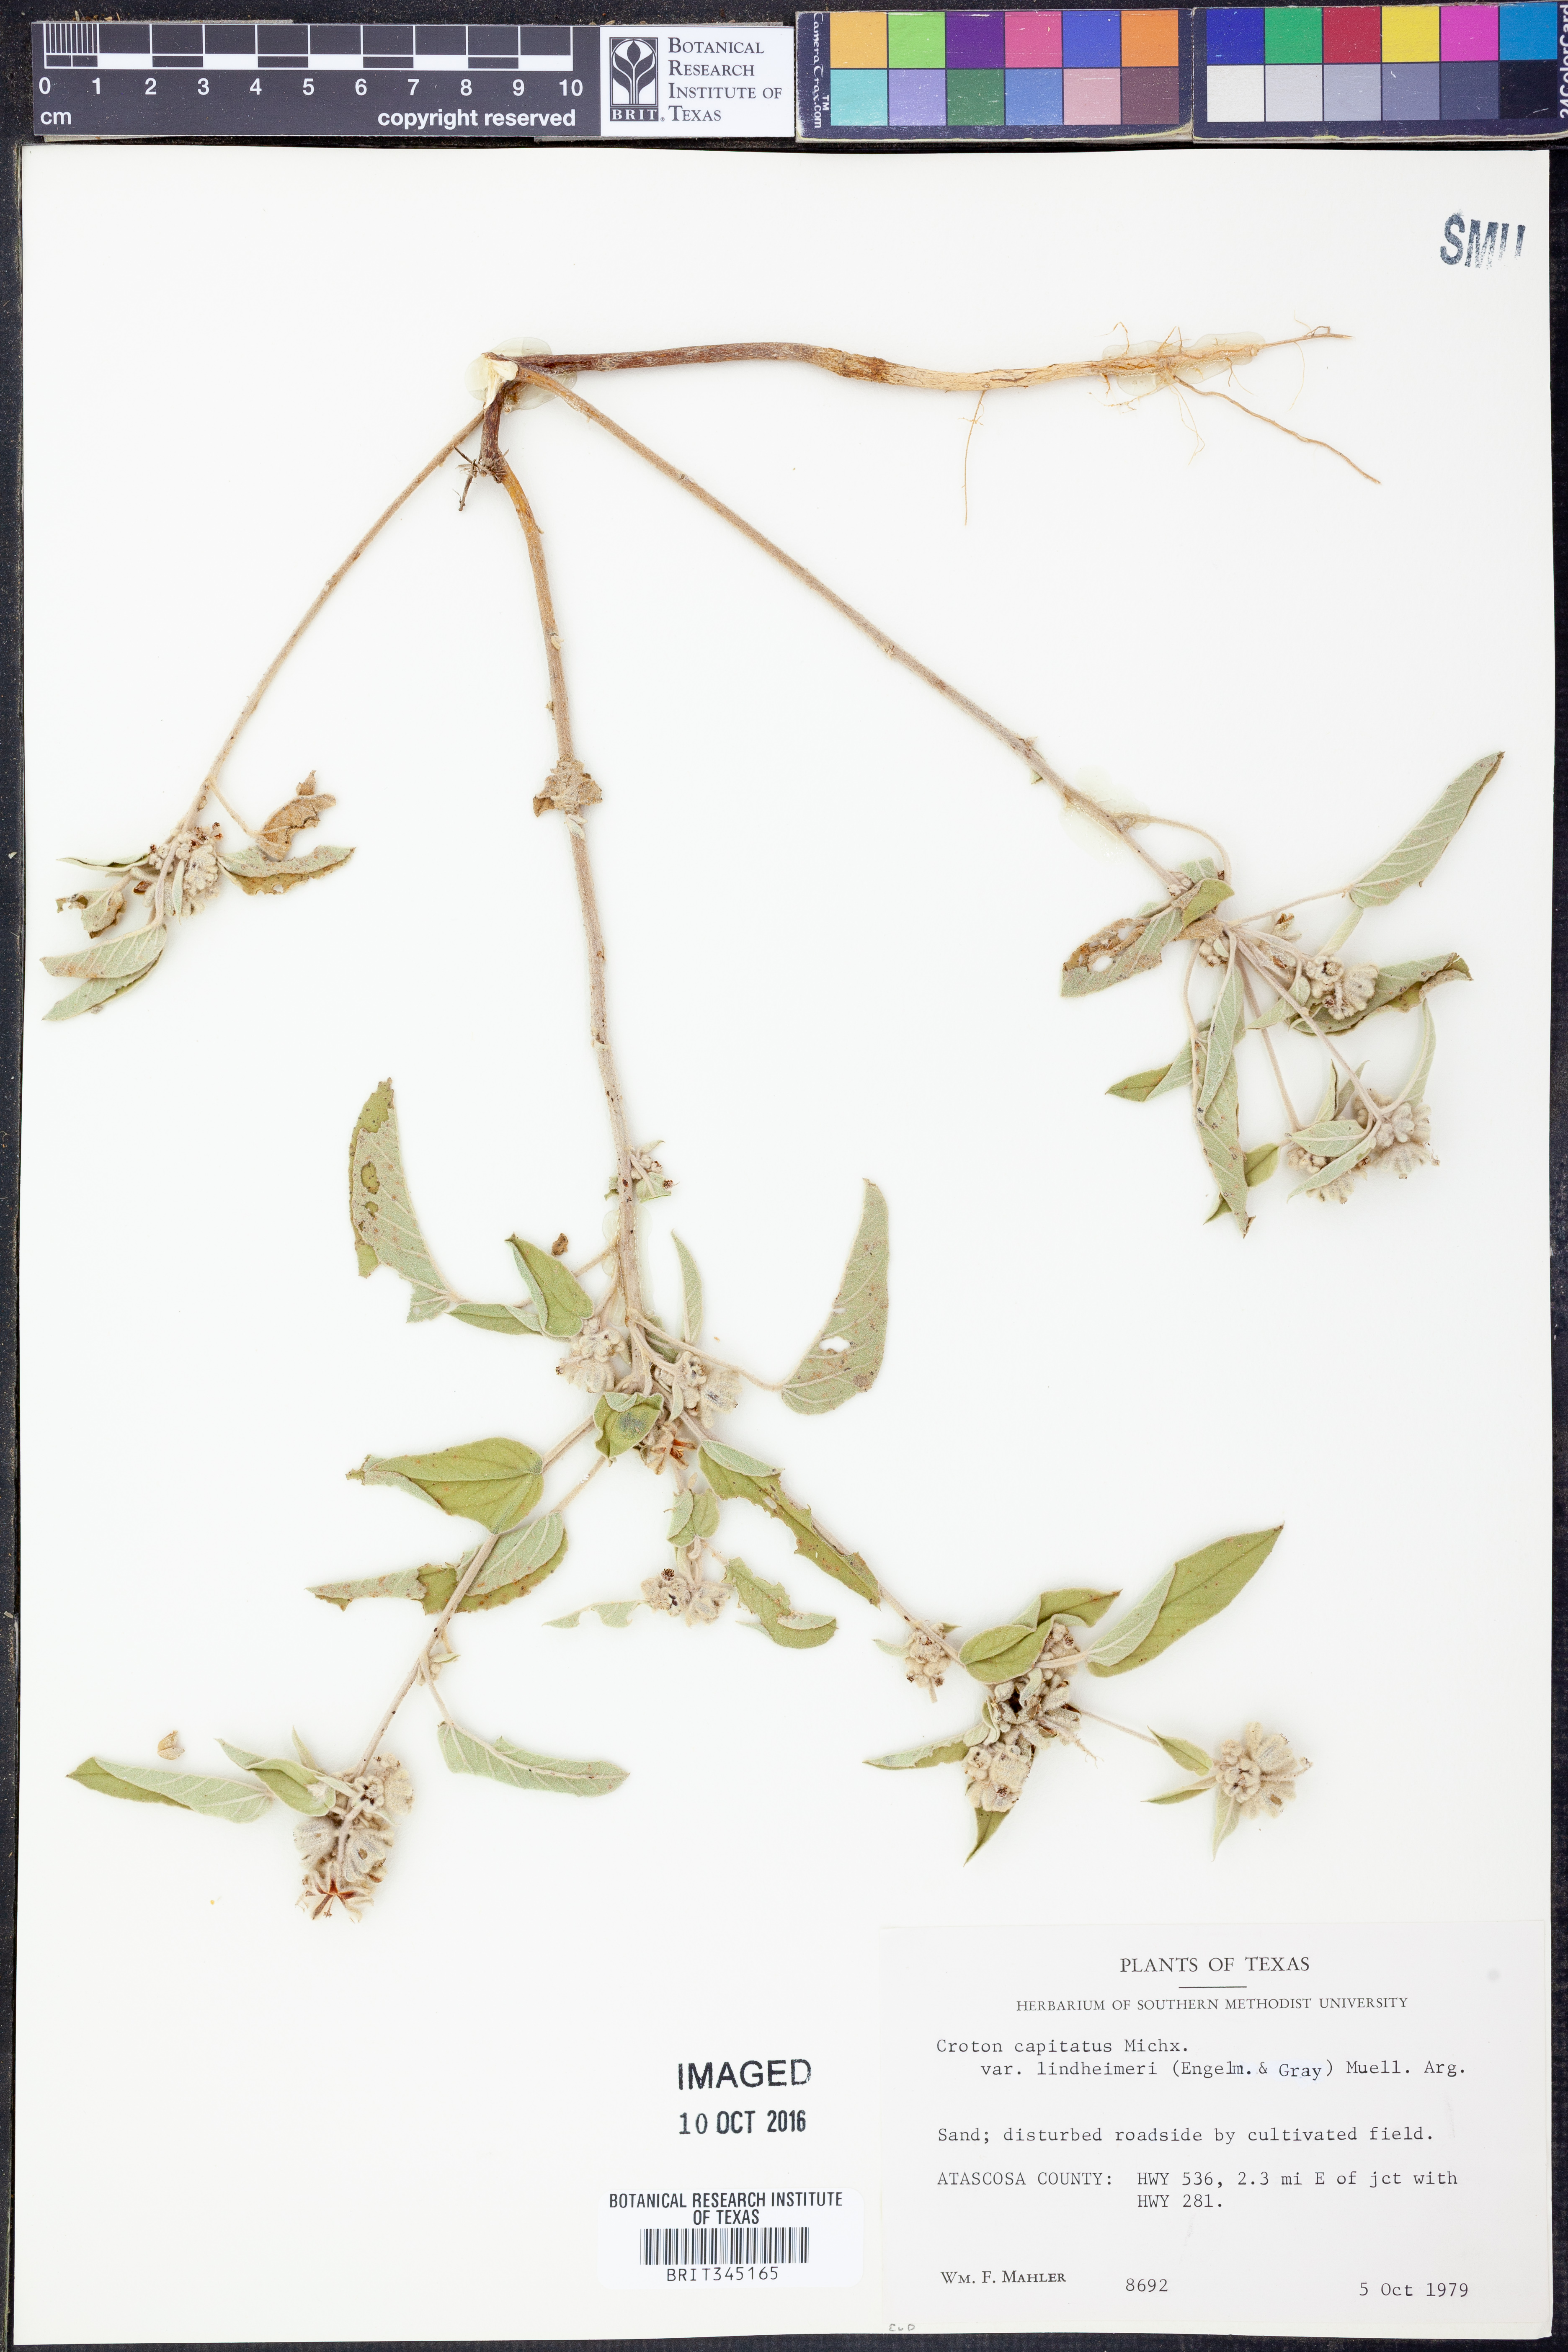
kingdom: Plantae
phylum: Tracheophyta
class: Magnoliopsida
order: Malpighiales
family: Euphorbiaceae
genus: Croton
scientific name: Croton lindheimeri
